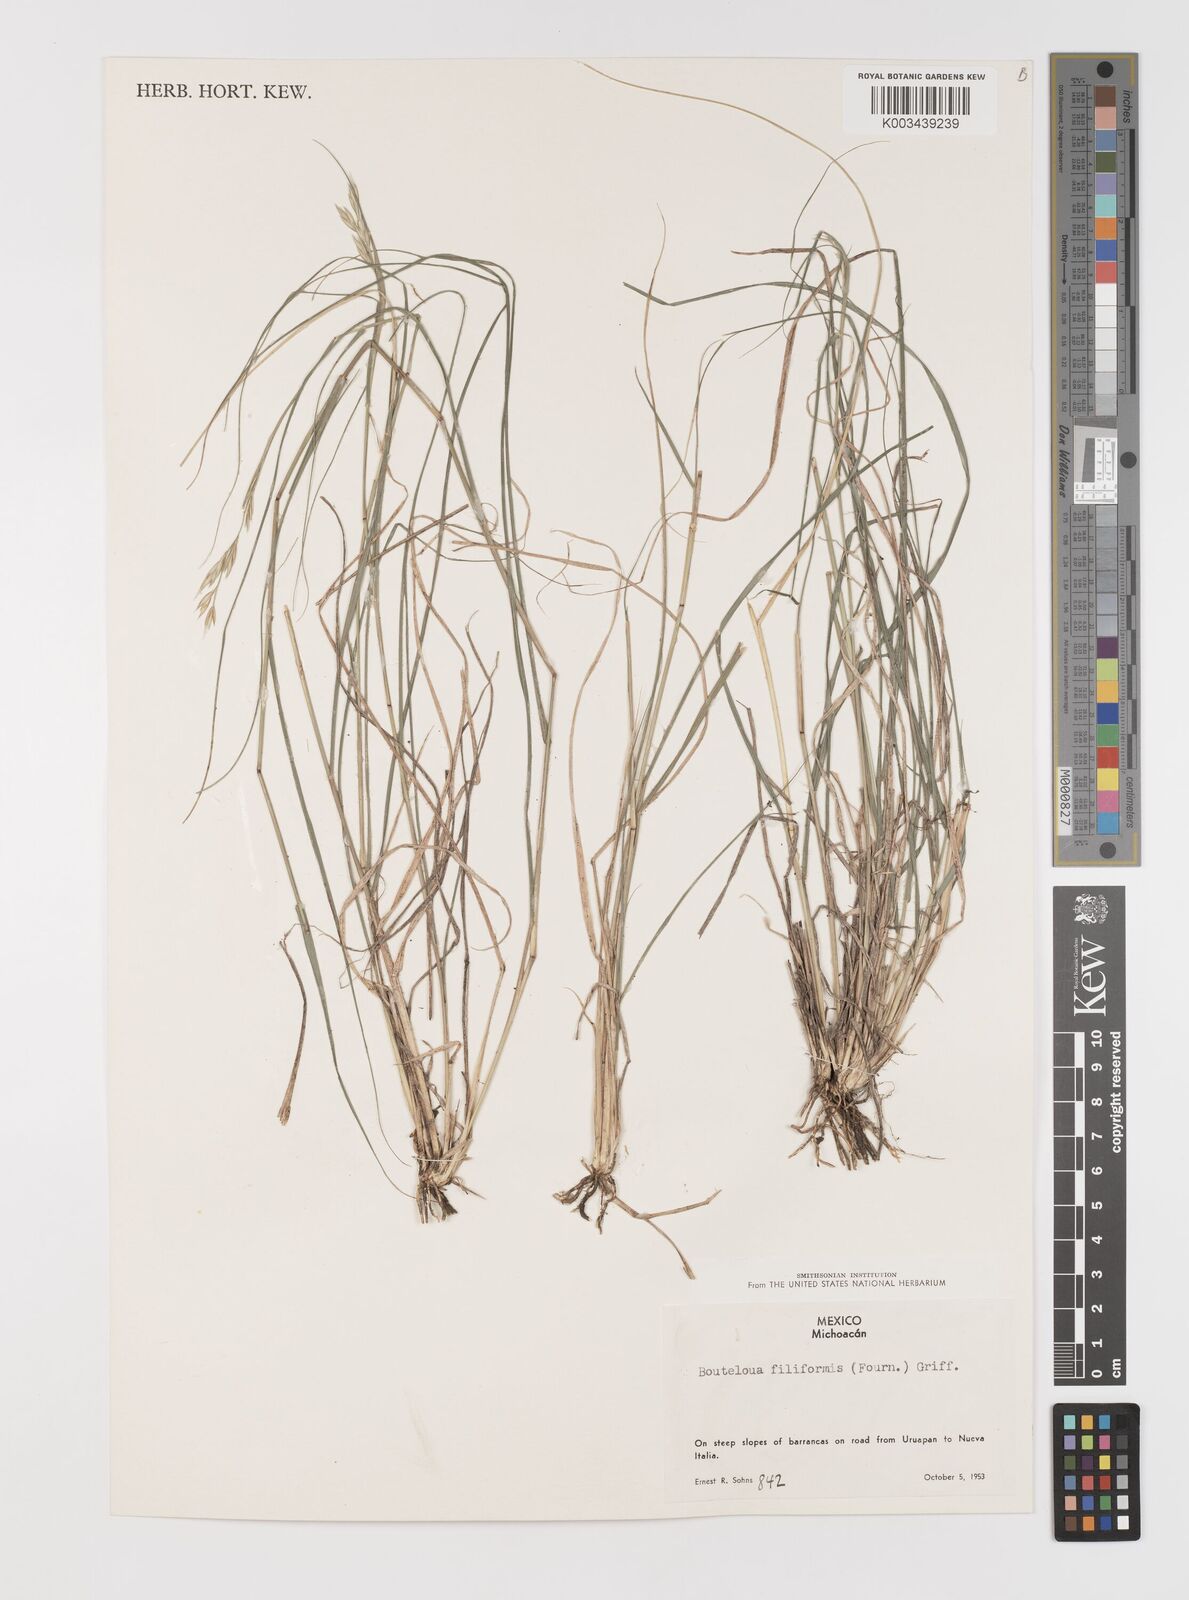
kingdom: Plantae
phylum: Tracheophyta
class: Liliopsida
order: Poales
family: Poaceae
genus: Bouteloua
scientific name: Bouteloua repens
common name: Slender grama
